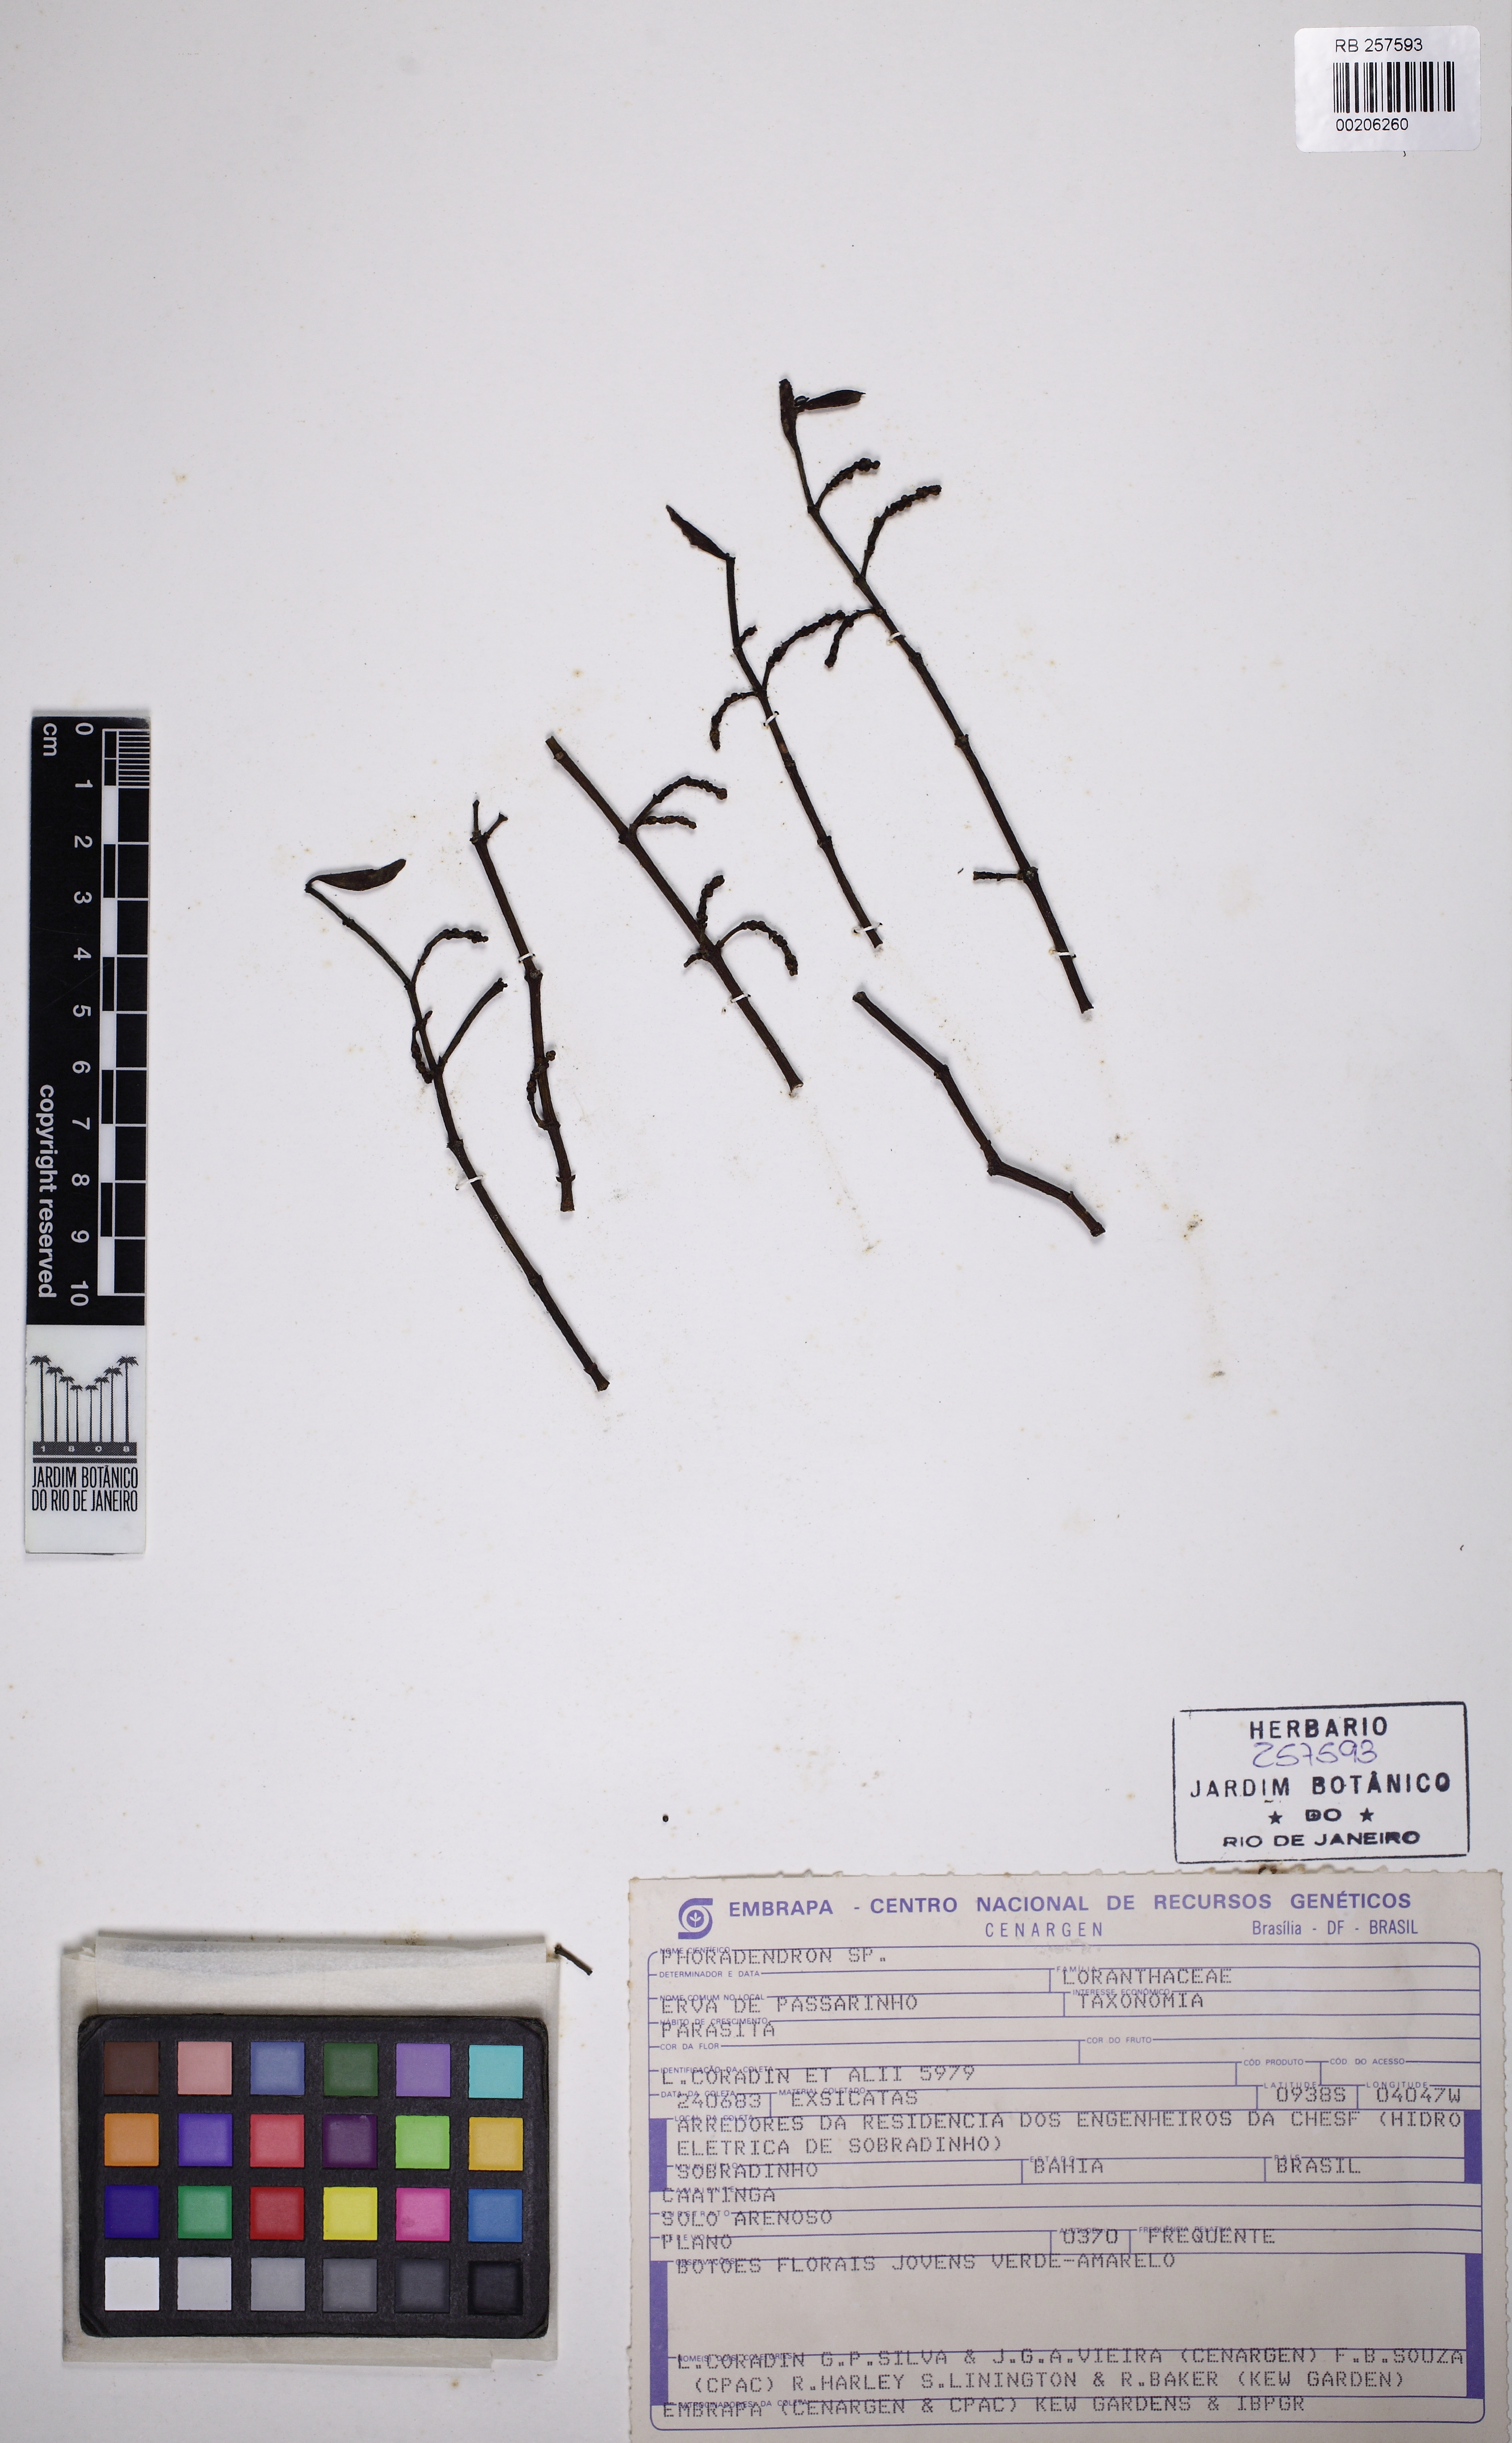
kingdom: Plantae
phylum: Tracheophyta
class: Magnoliopsida
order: Santalales
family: Viscaceae
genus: Phoradendron
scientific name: Phoradendron quadrangulare
